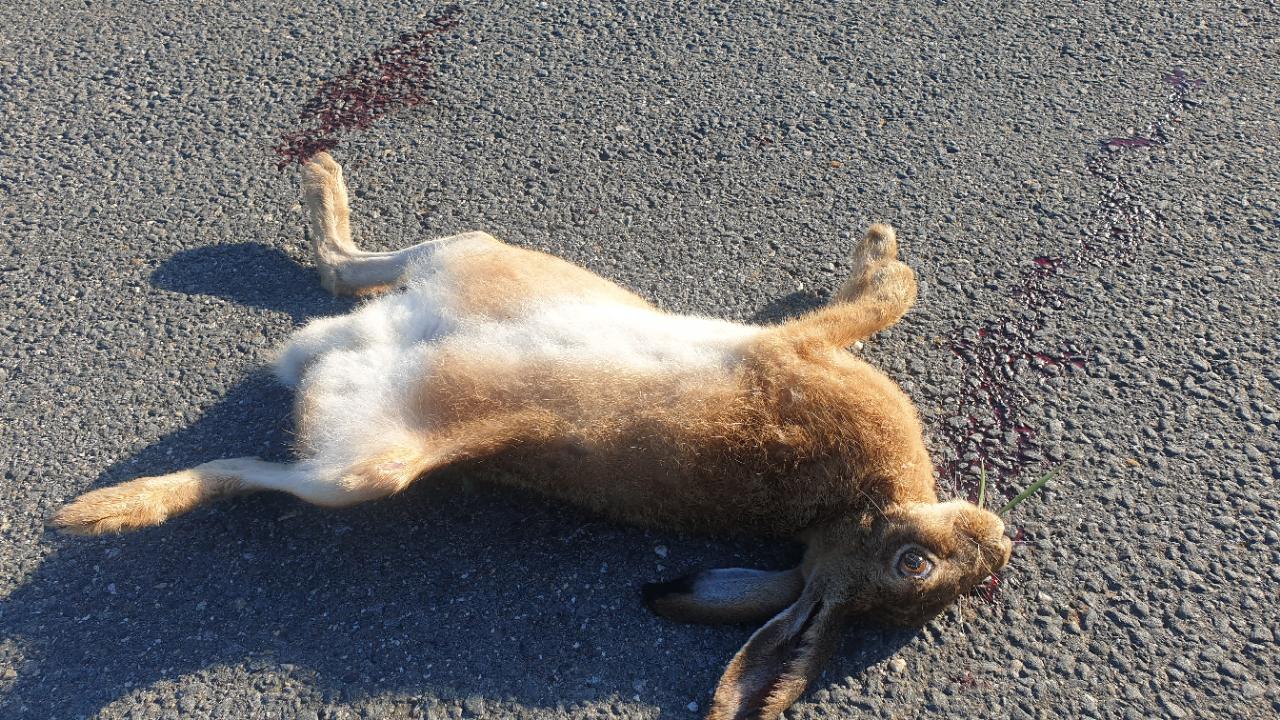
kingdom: Animalia
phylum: Chordata
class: Mammalia
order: Lagomorpha
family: Leporidae
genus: Lepus
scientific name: Lepus europaeus
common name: European hare
